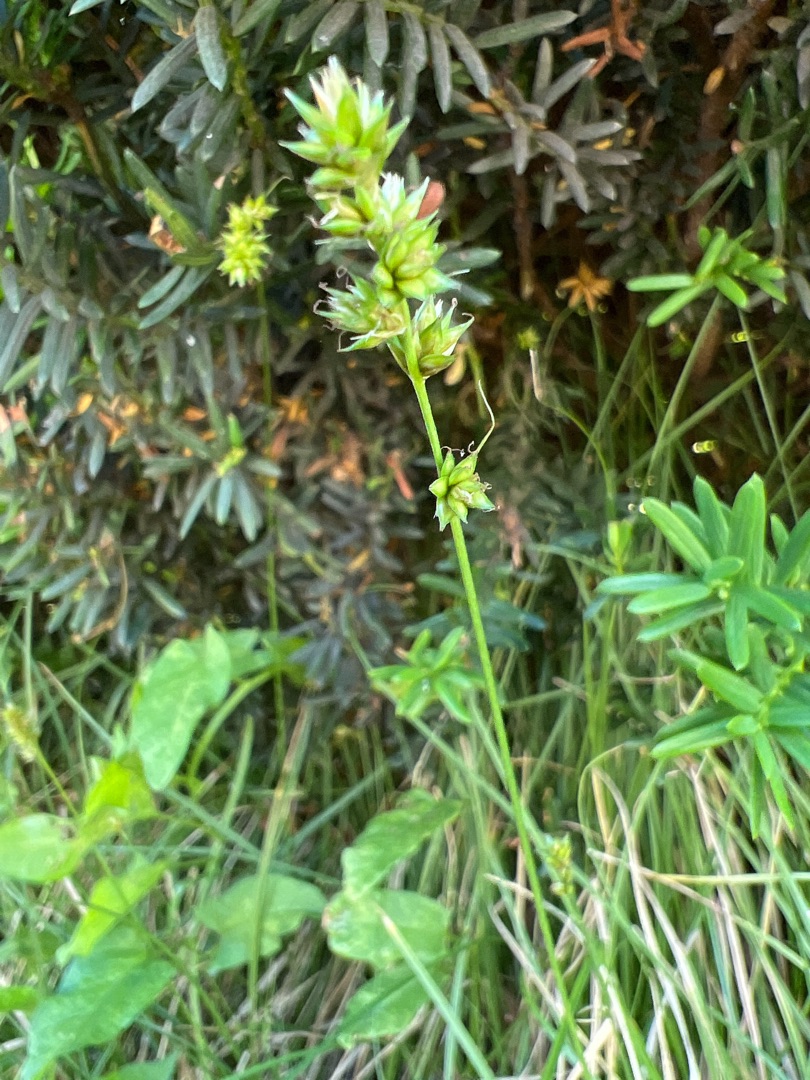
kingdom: Plantae
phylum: Tracheophyta
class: Liliopsida
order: Poales
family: Cyperaceae
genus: Carex
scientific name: Carex divulsa
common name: Mellembrudt star
